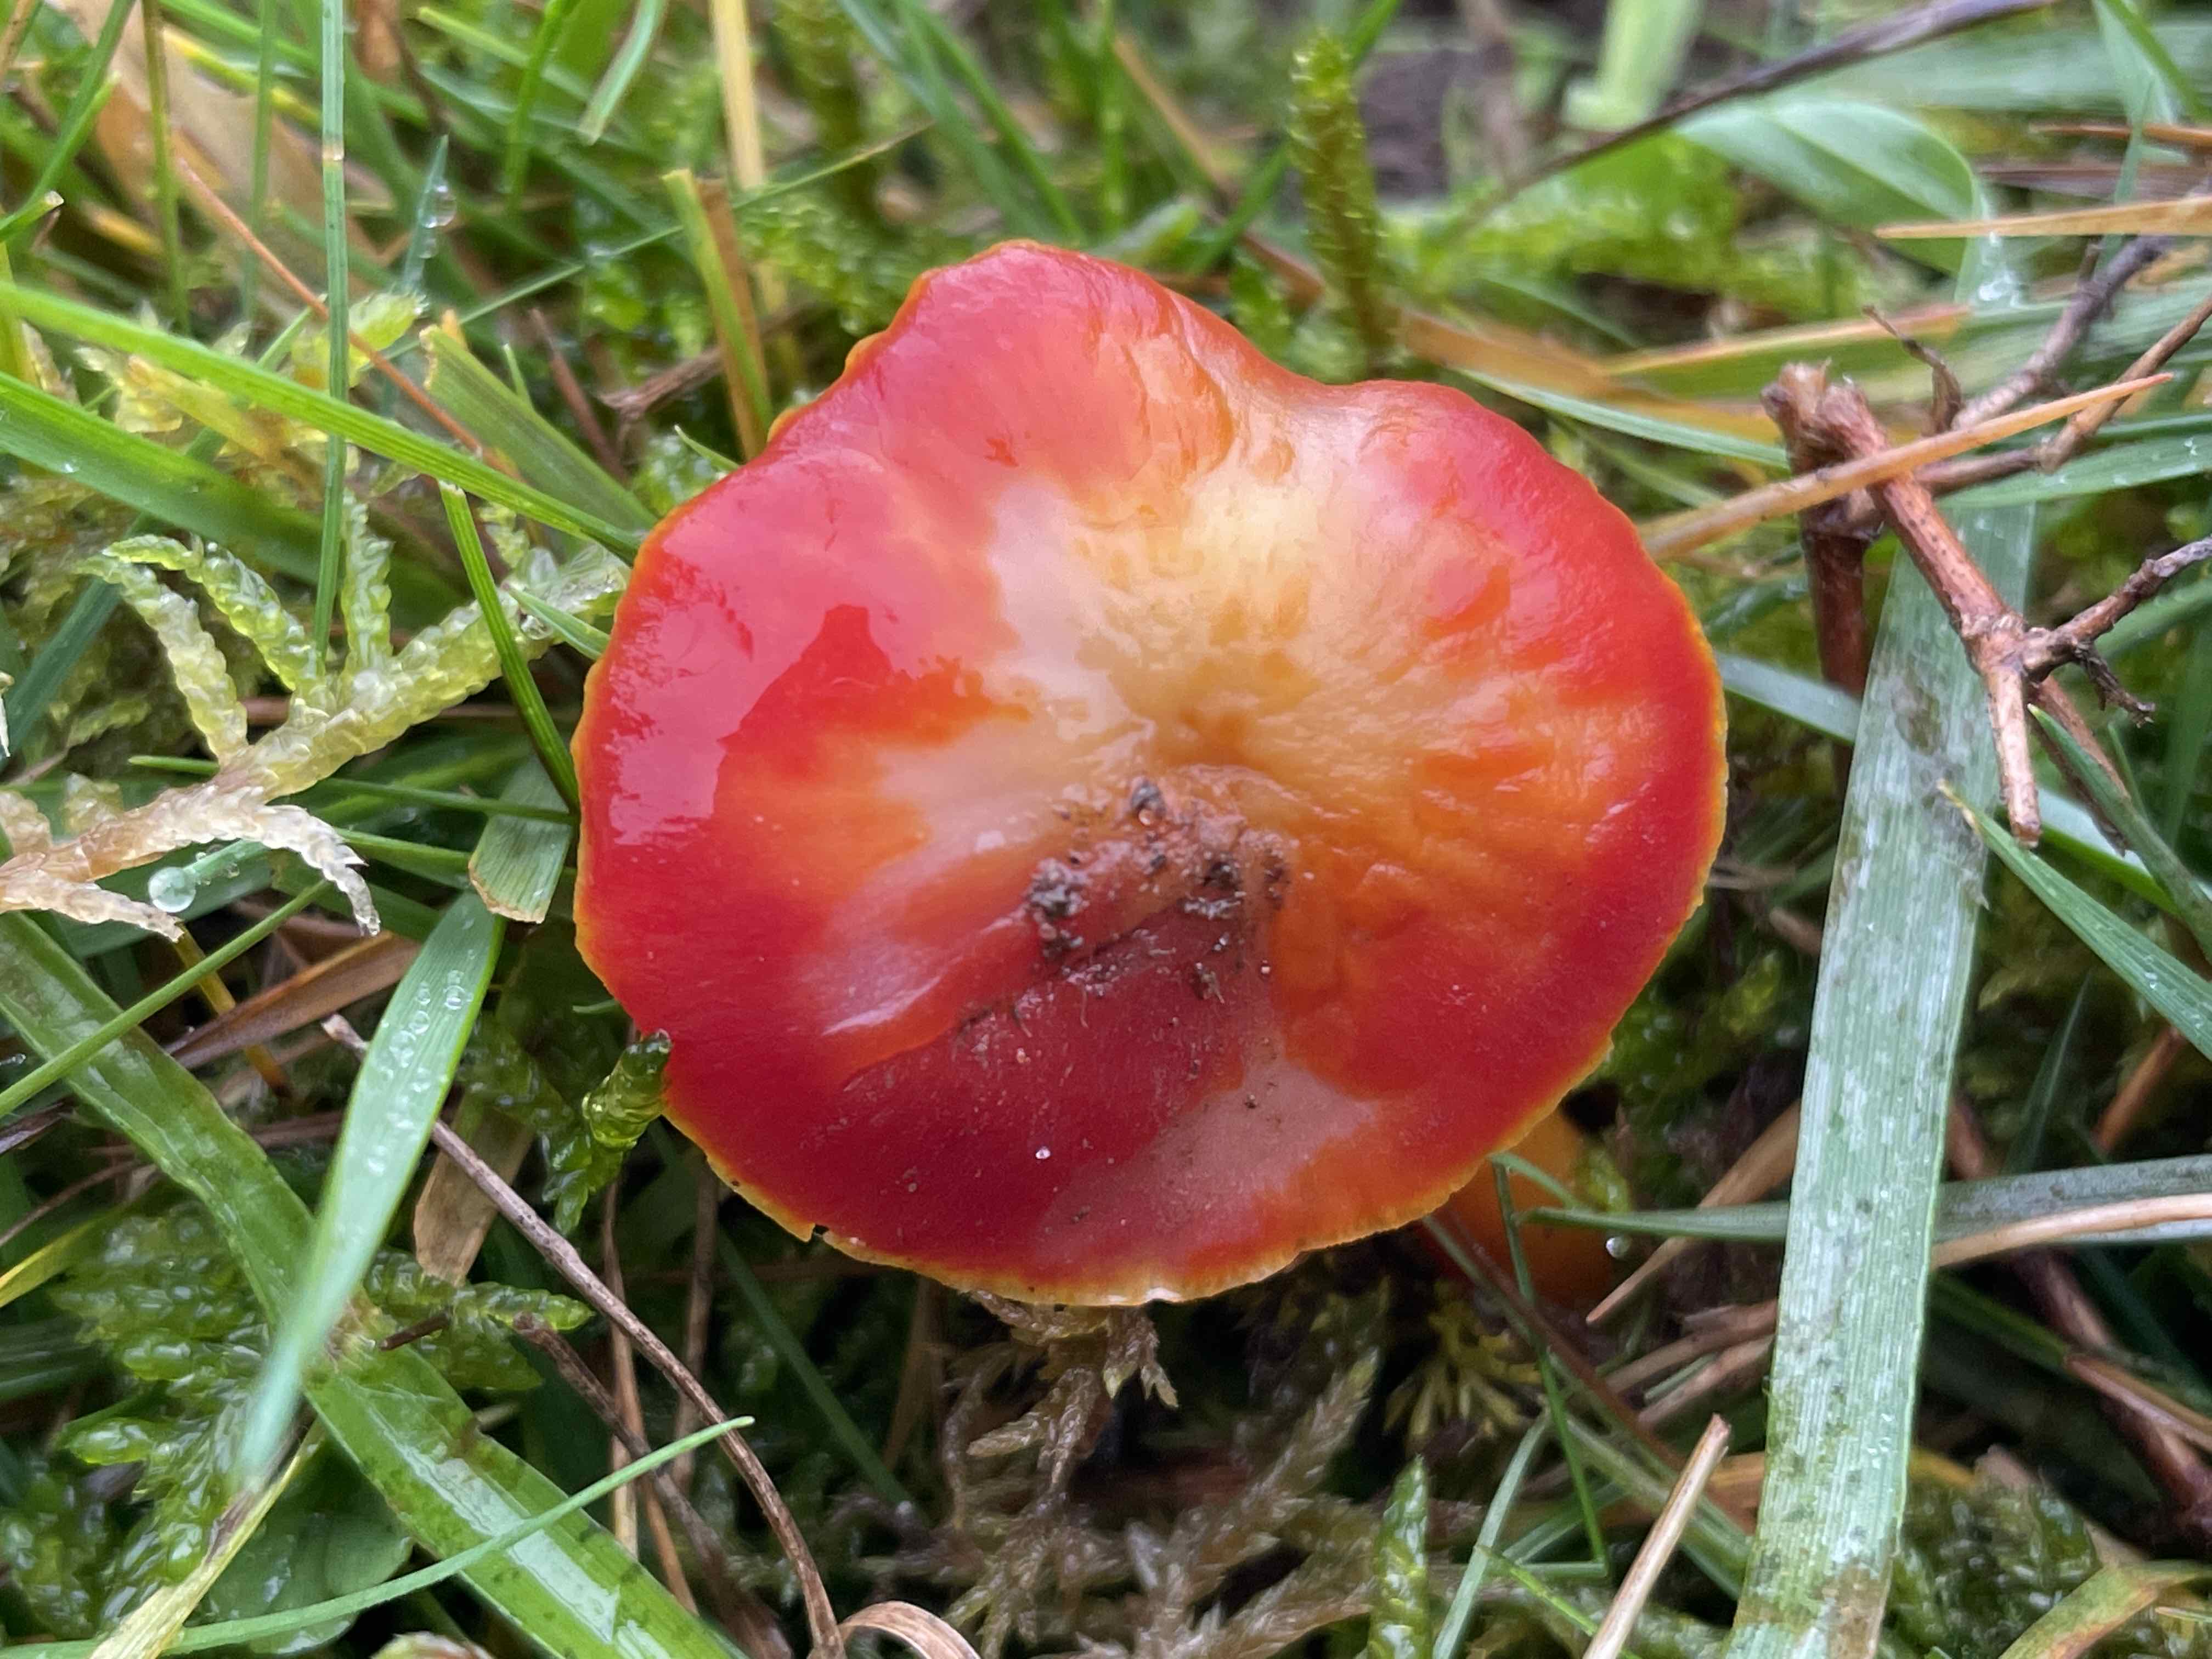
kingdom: Fungi
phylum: Basidiomycota
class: Agaricomycetes
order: Agaricales
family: Hygrophoraceae
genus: Hygrocybe
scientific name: Hygrocybe coccinea
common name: cinnober-vokshat
